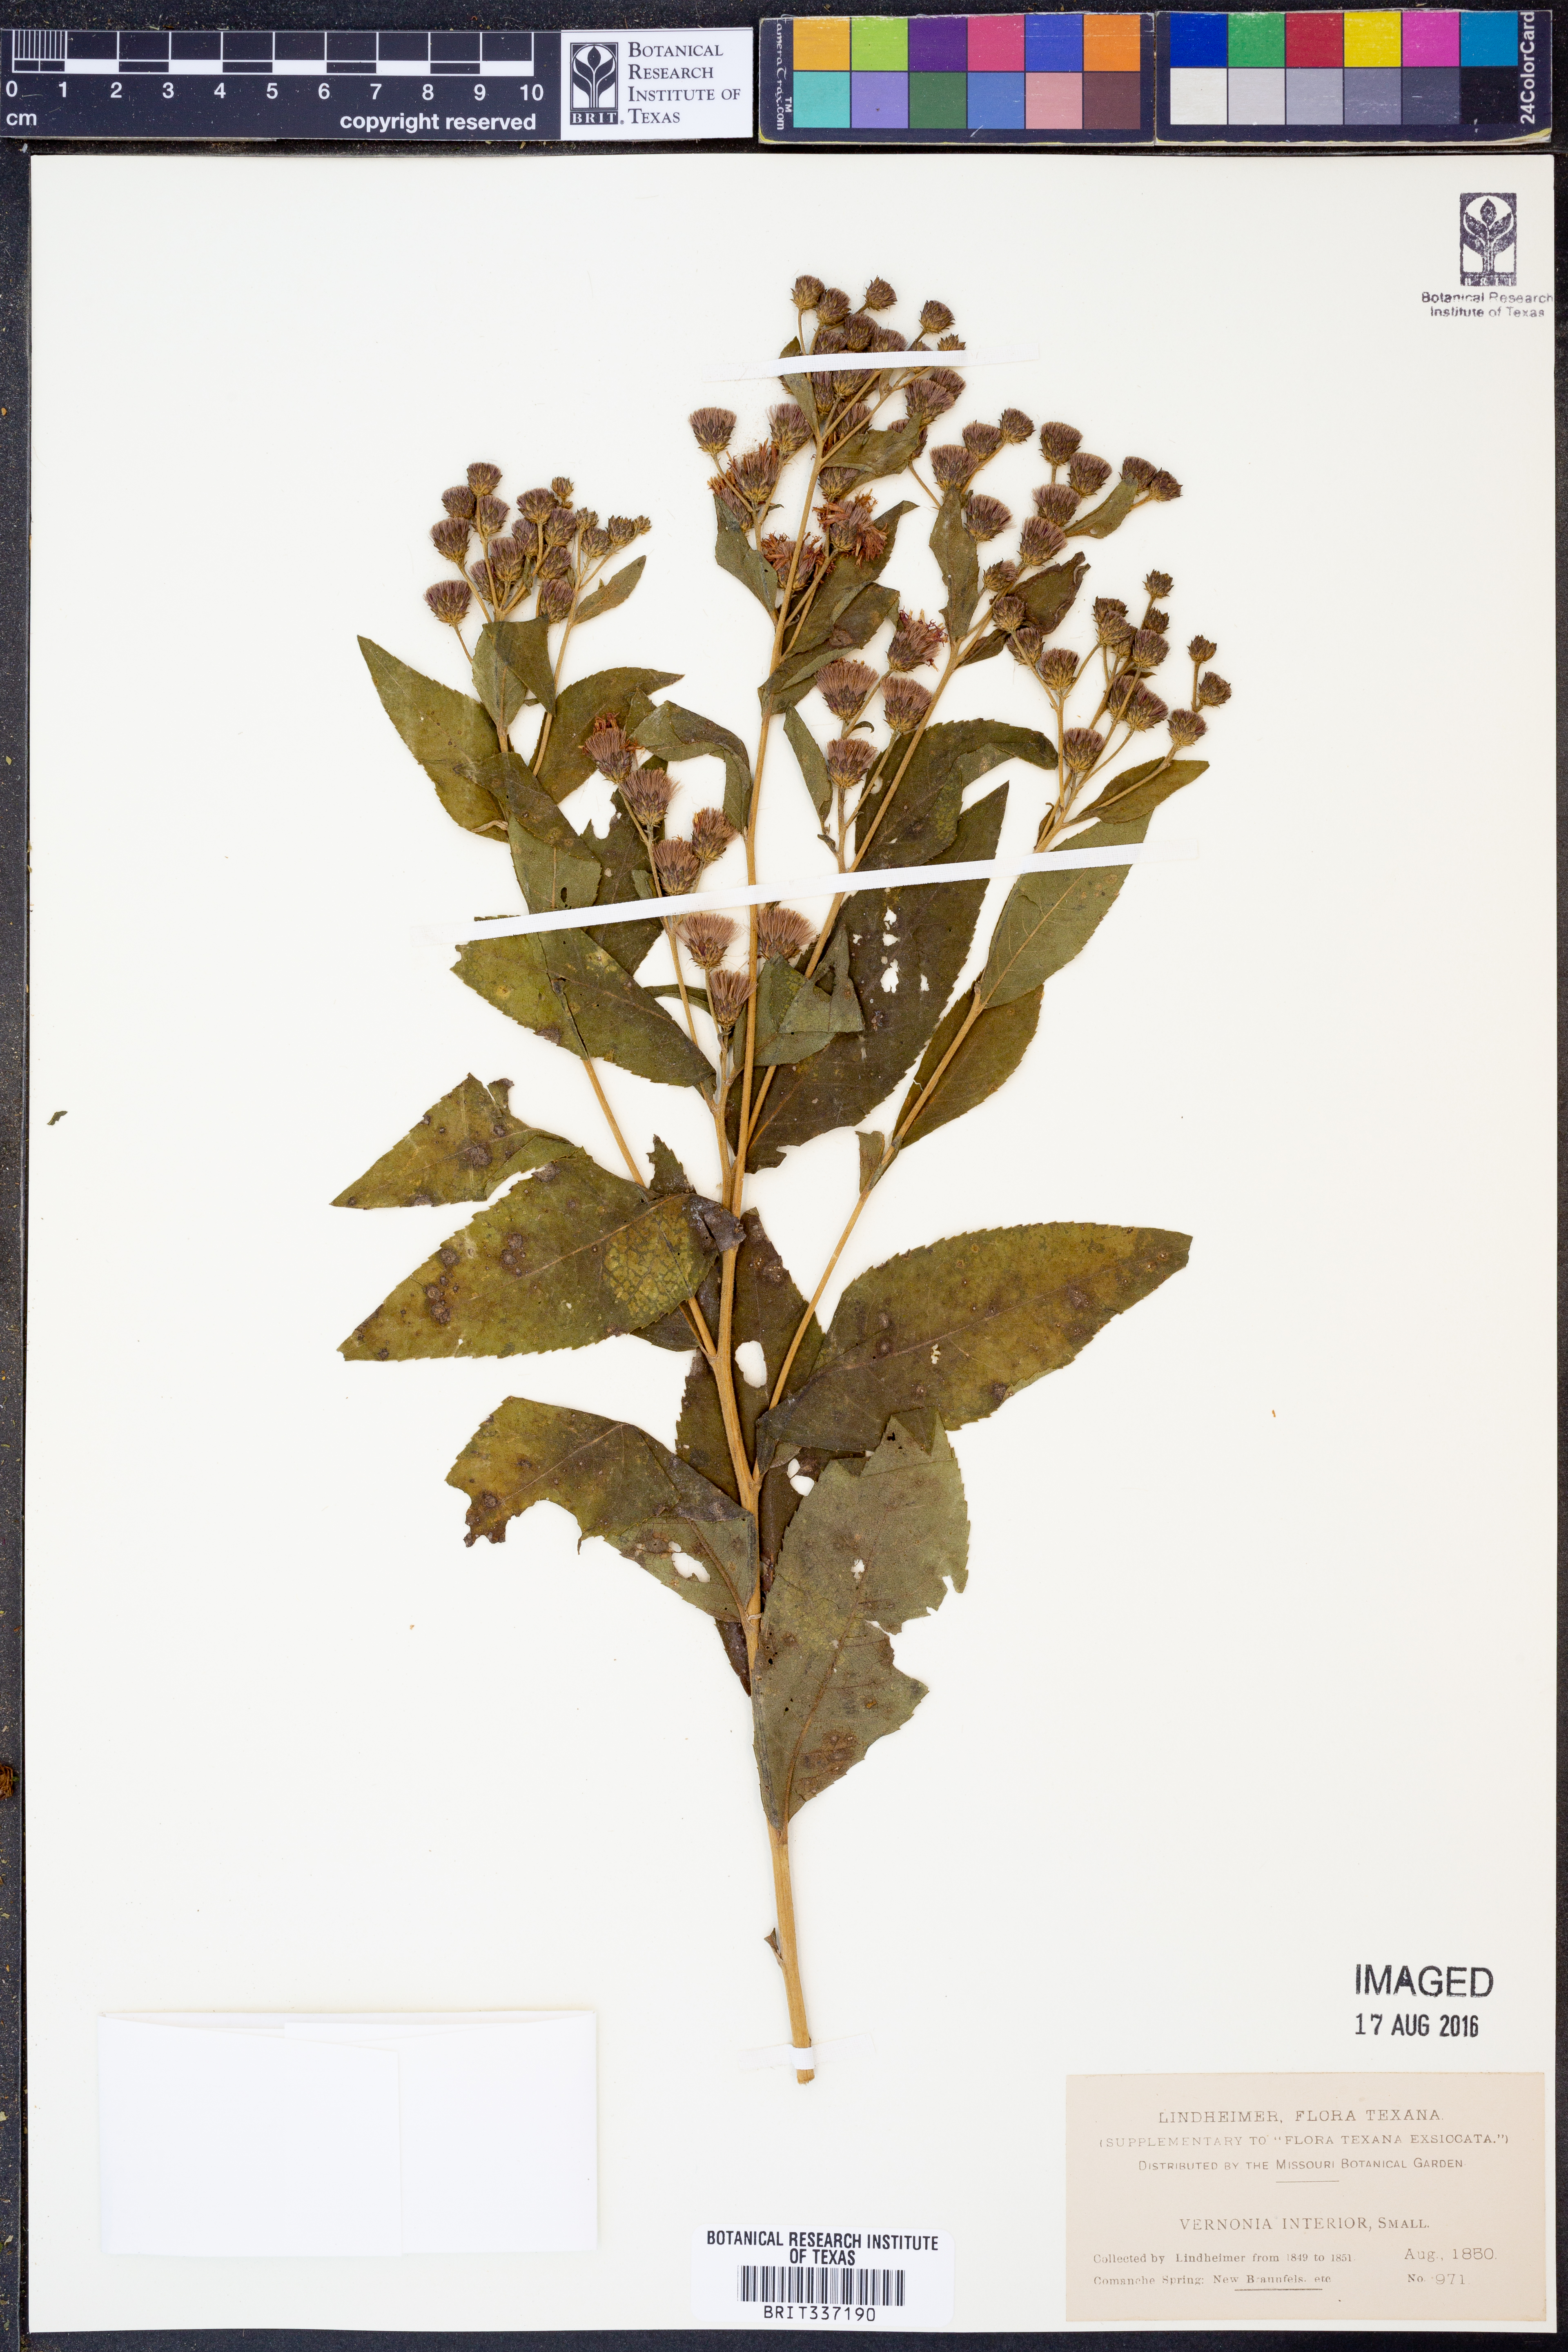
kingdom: Plantae
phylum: Tracheophyta
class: Magnoliopsida
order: Asterales
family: Asteraceae
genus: Vernonia
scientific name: Vernonia baldwinii
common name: Western ironweed
